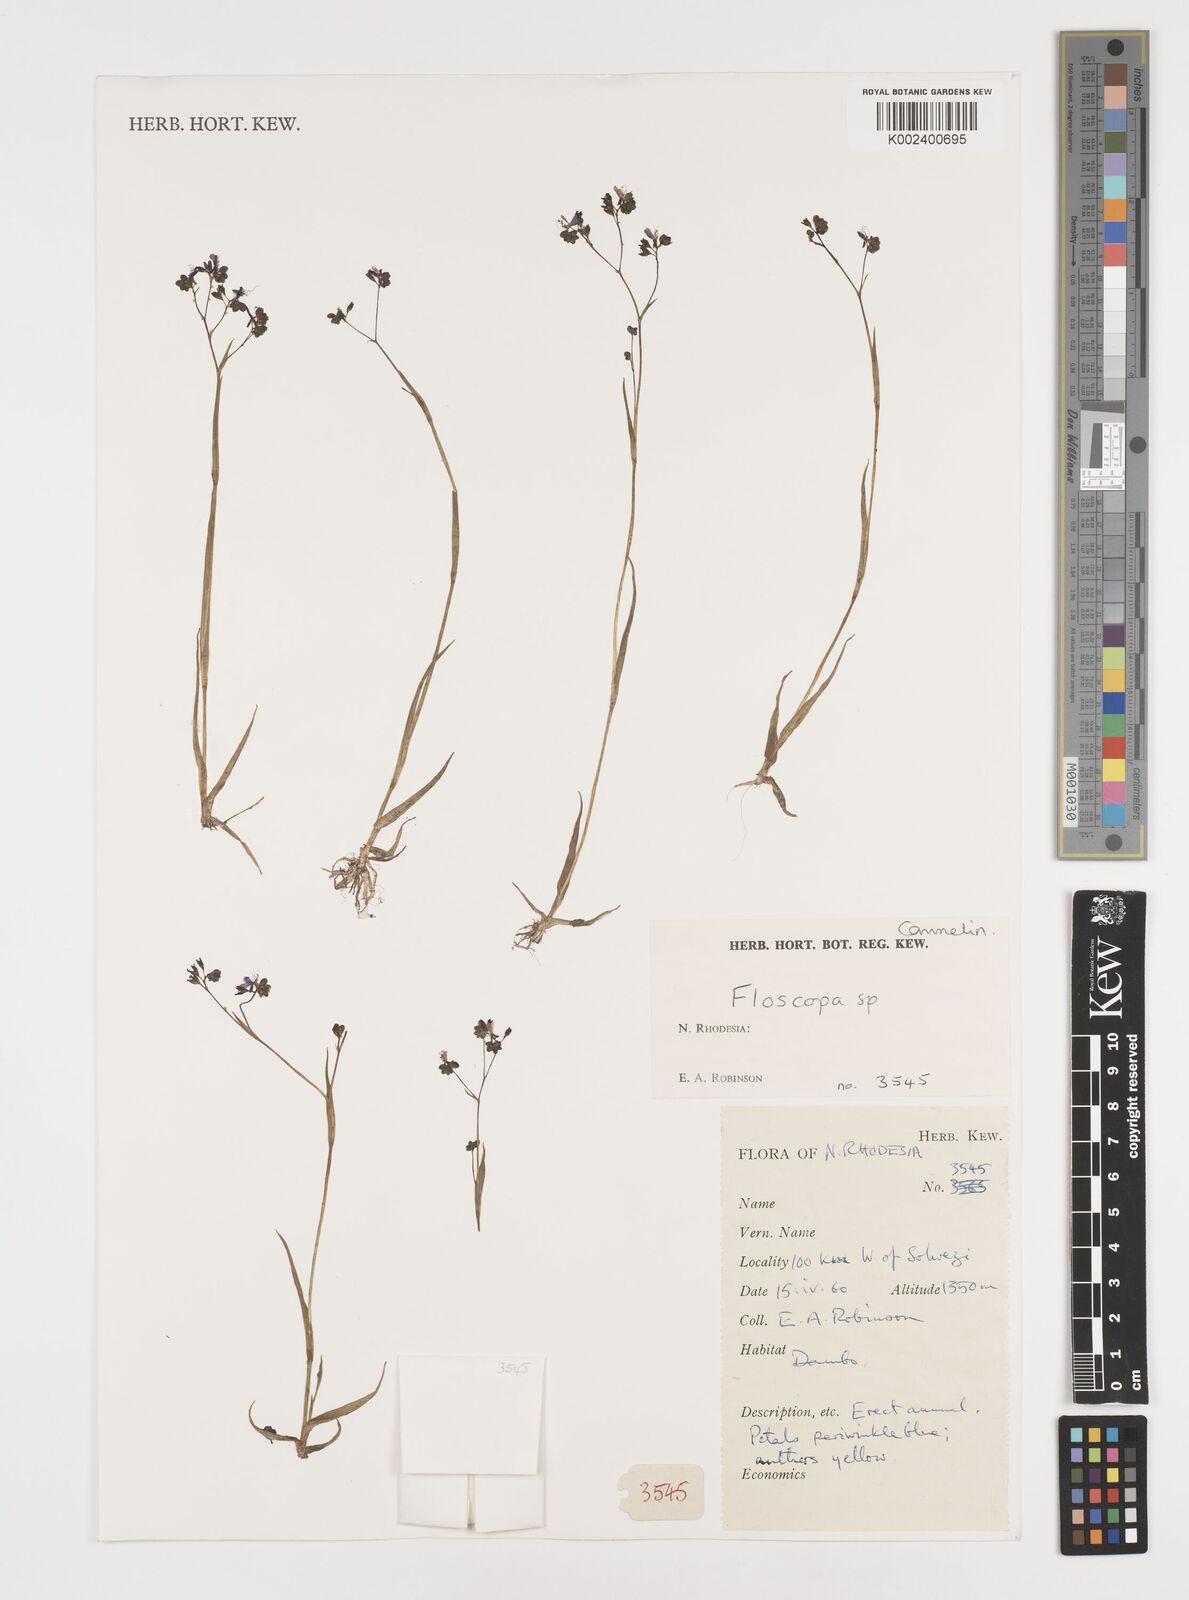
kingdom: Plantae
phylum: Tracheophyta
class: Liliopsida
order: Commelinales
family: Commelinaceae
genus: Floscopa
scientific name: Floscopa
